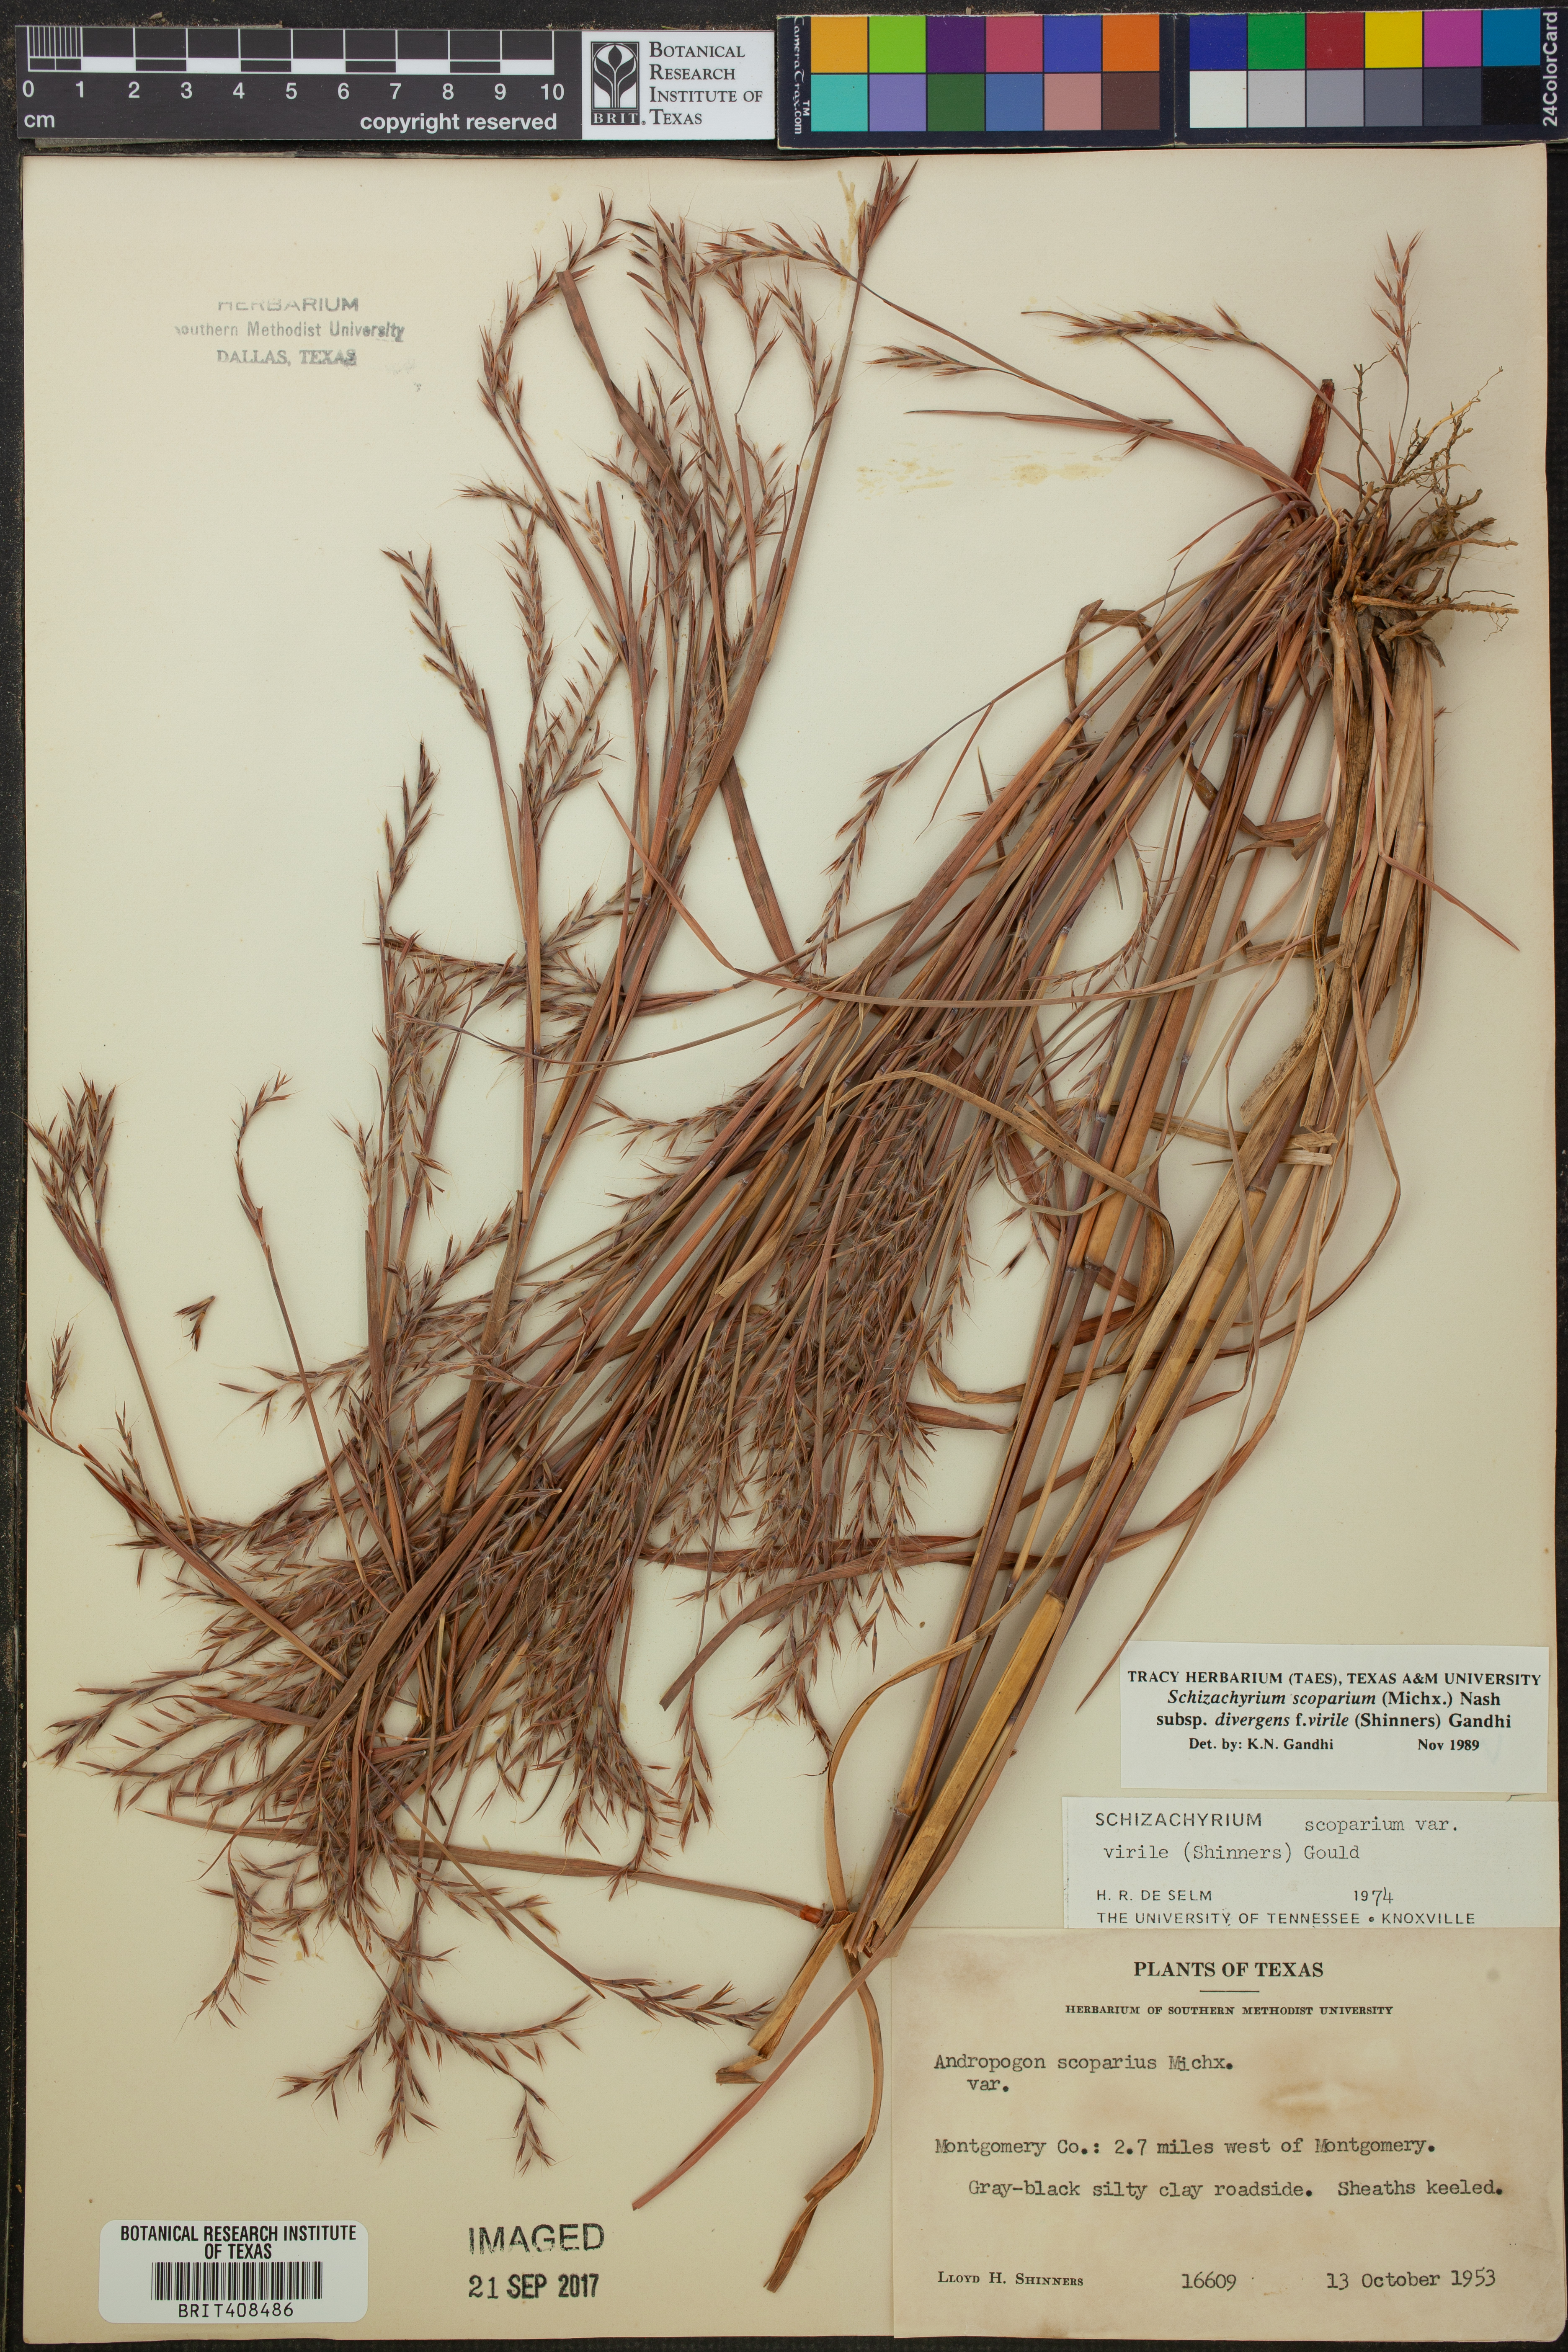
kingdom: Plantae
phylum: Tracheophyta
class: Liliopsida
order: Poales
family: Poaceae
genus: Schizachyrium
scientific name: Schizachyrium scoparium
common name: Little bluestem
